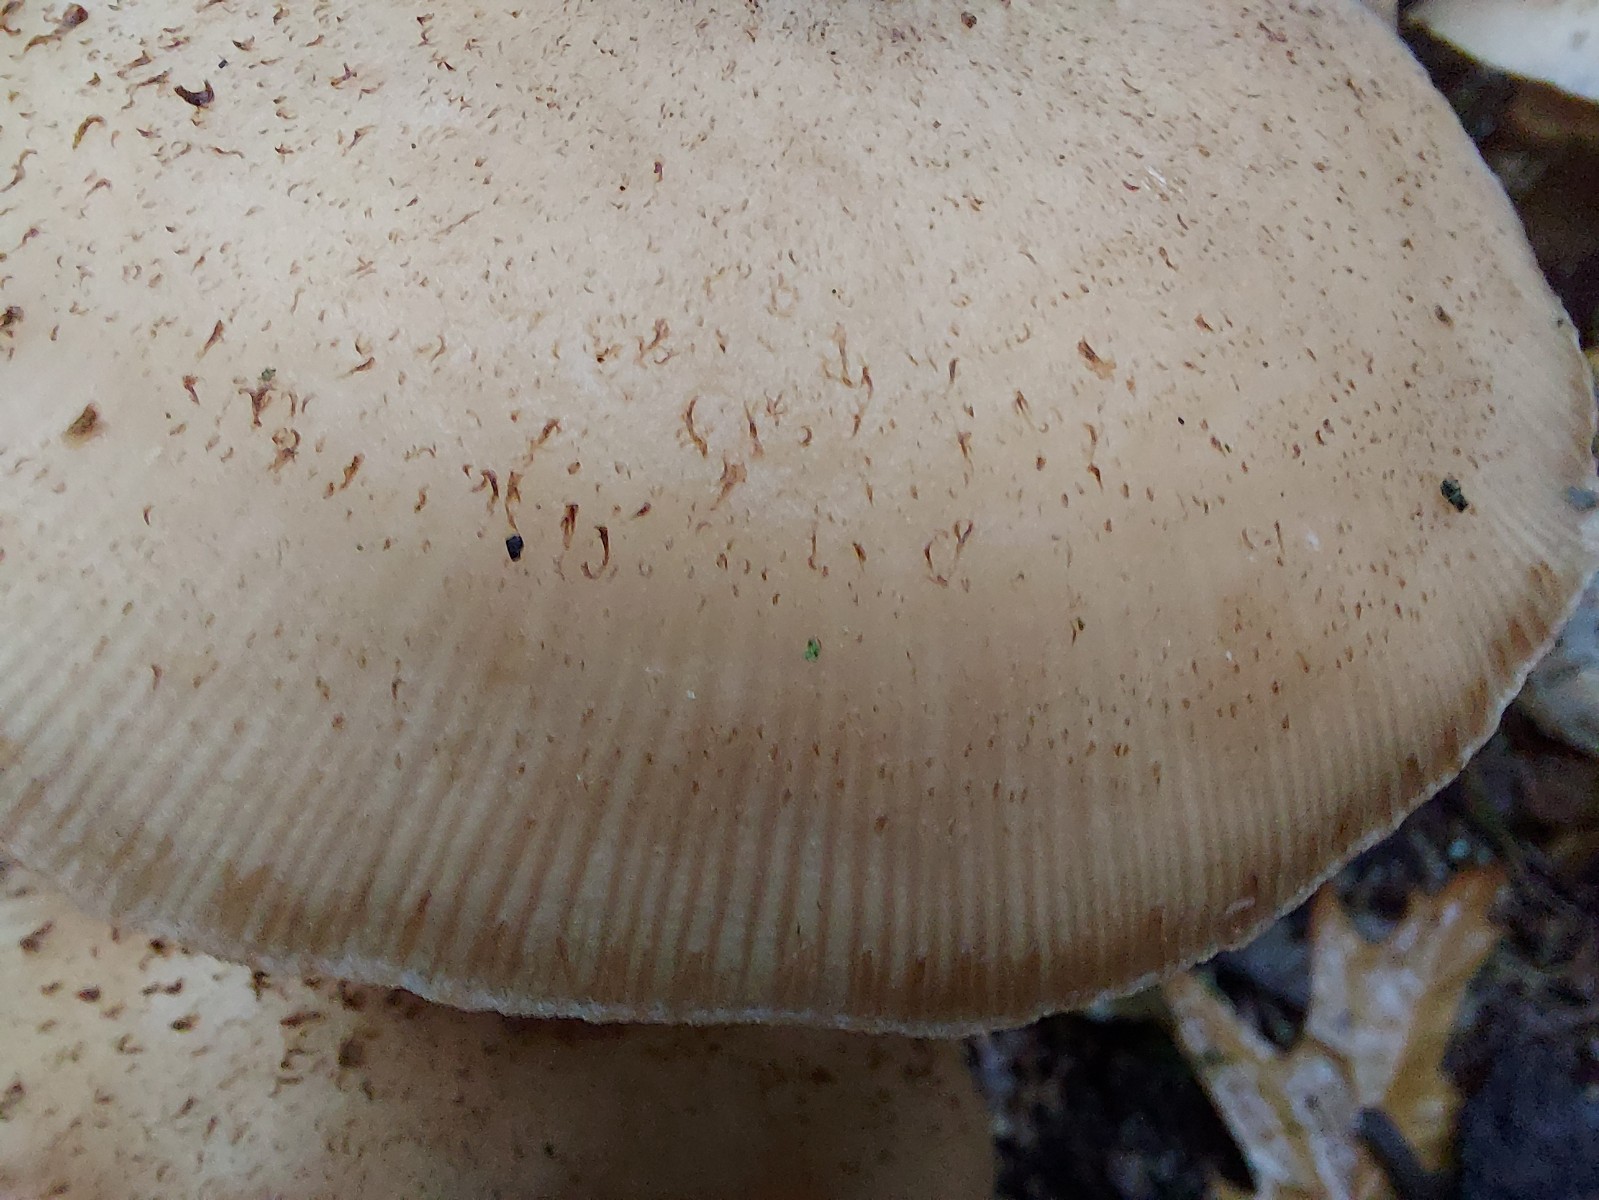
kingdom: Fungi
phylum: Basidiomycota
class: Agaricomycetes
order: Agaricales
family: Physalacriaceae
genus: Armillaria
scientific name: Armillaria ostoyae
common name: mørk honningsvamp
